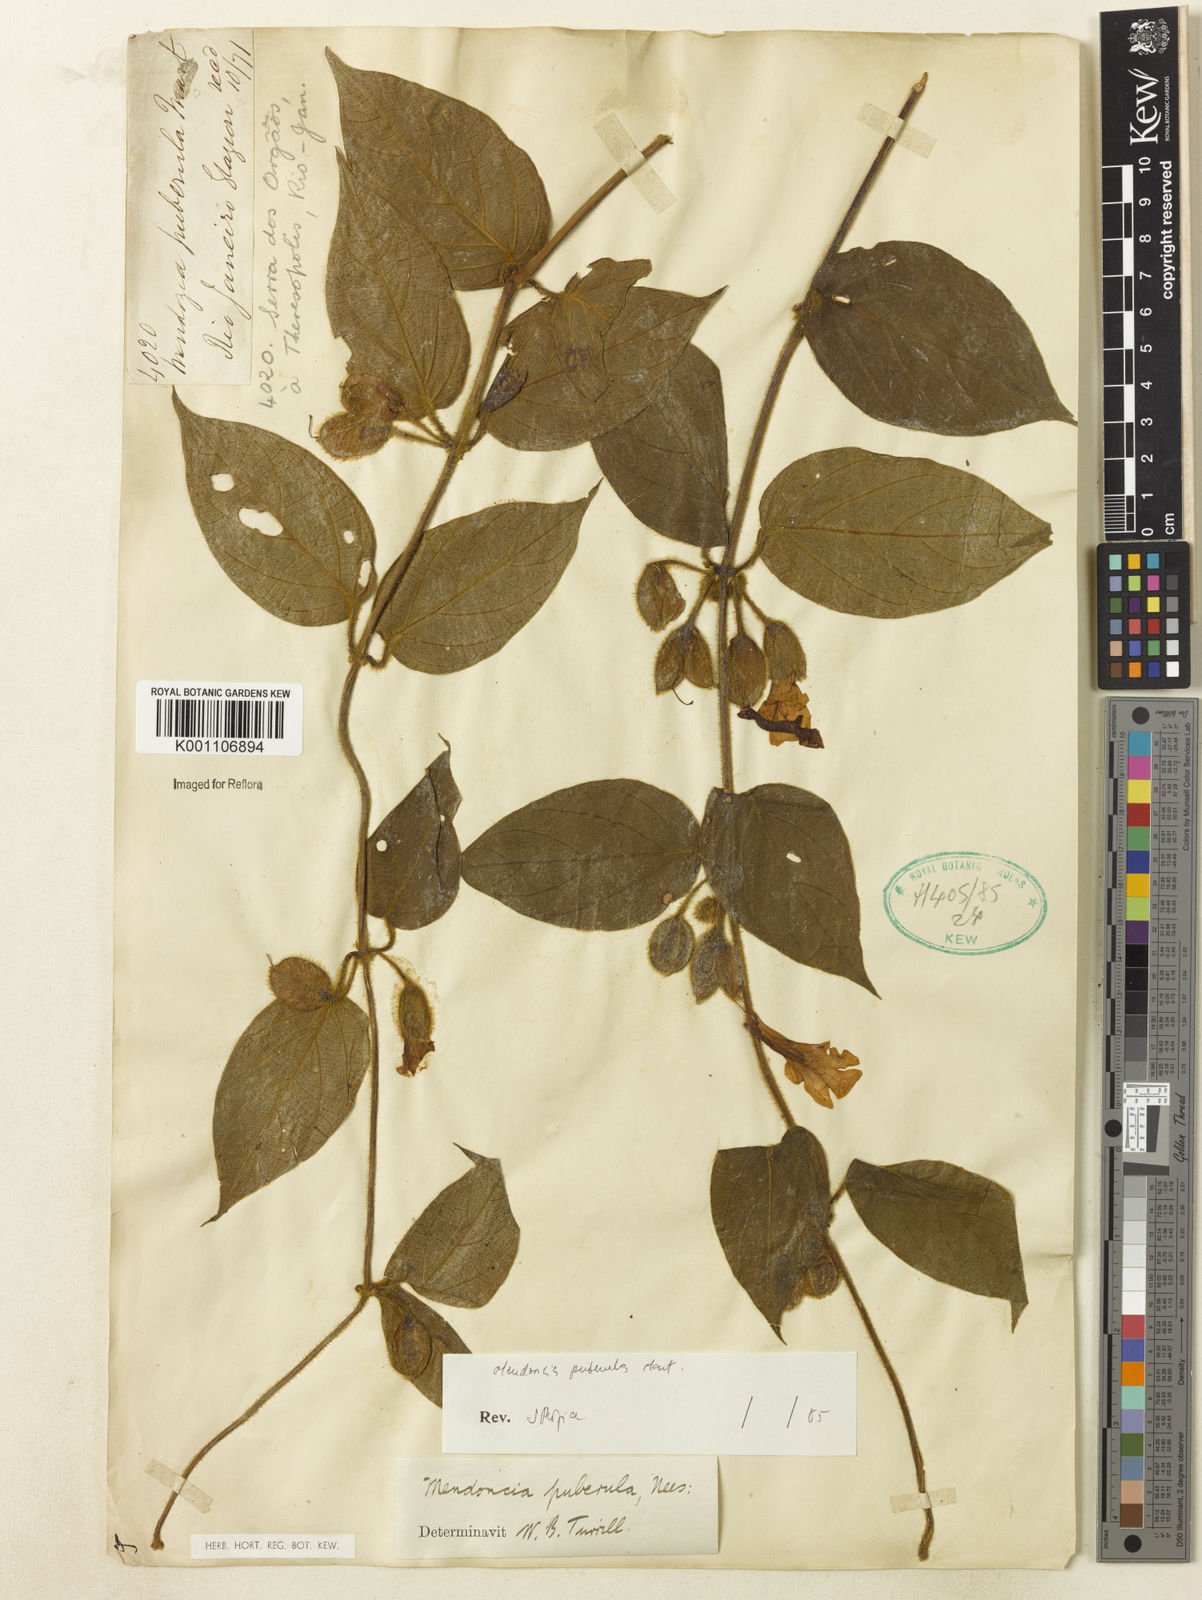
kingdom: Plantae
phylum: Tracheophyta
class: Magnoliopsida
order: Lamiales
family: Acanthaceae
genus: Mendoncia
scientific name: Mendoncia puberula
